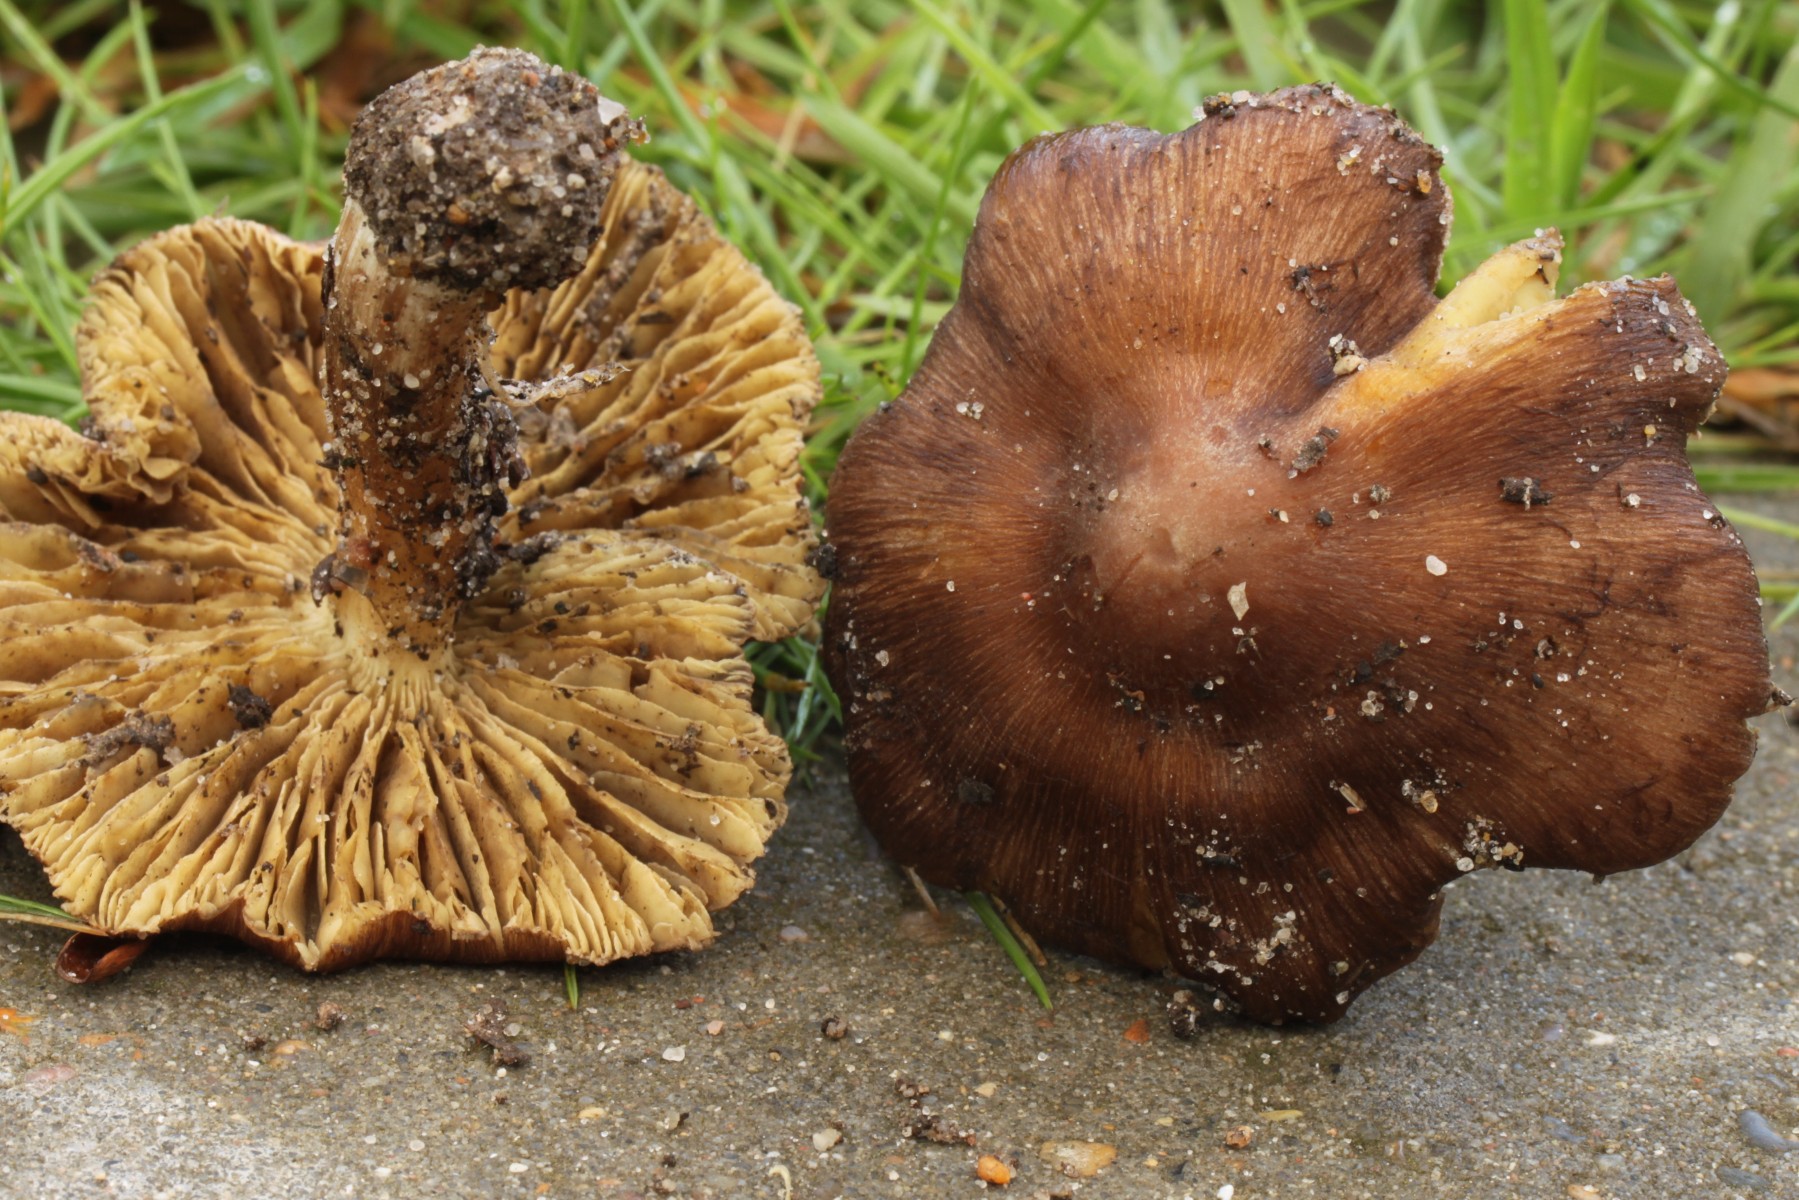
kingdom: Fungi
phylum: Basidiomycota
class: Agaricomycetes
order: Agaricales
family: Inocybaceae
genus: Inosperma
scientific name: Inosperma maculatum
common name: plettet trævlhat
